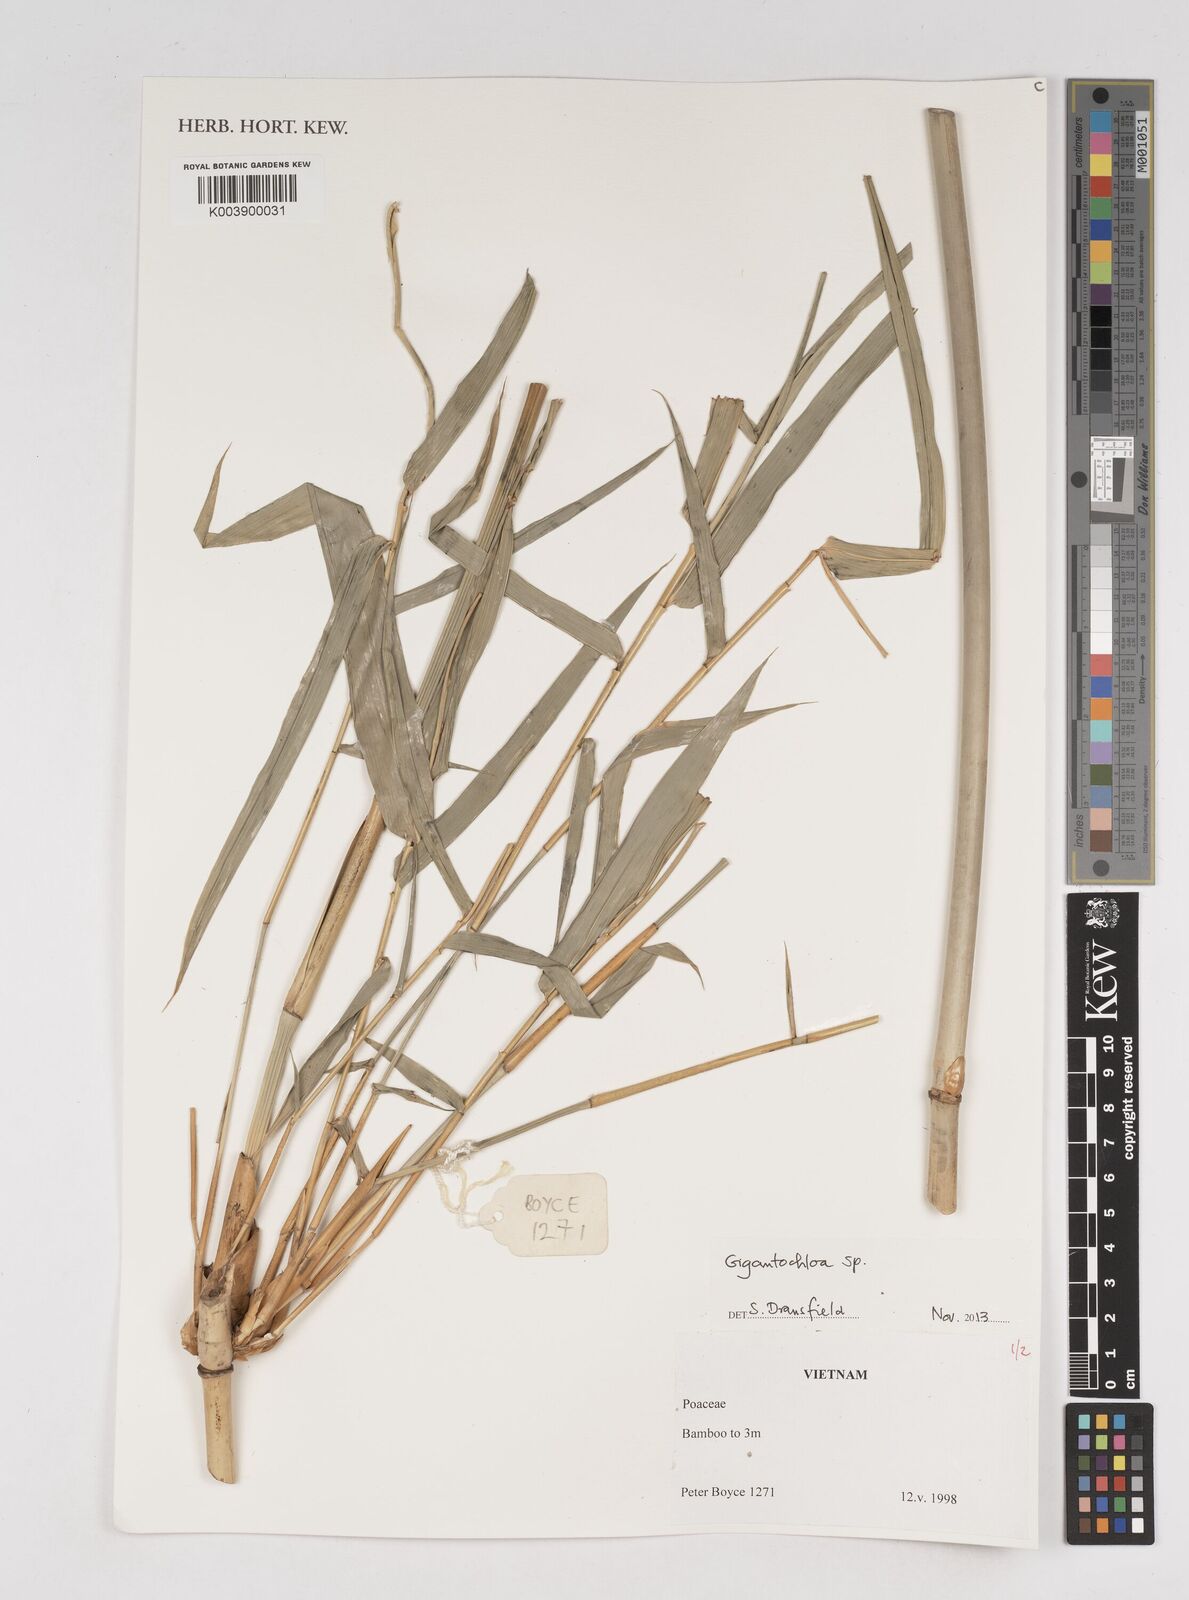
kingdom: Plantae
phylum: Tracheophyta
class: Liliopsida
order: Poales
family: Poaceae
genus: Gigantochloa
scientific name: Gigantochloa
